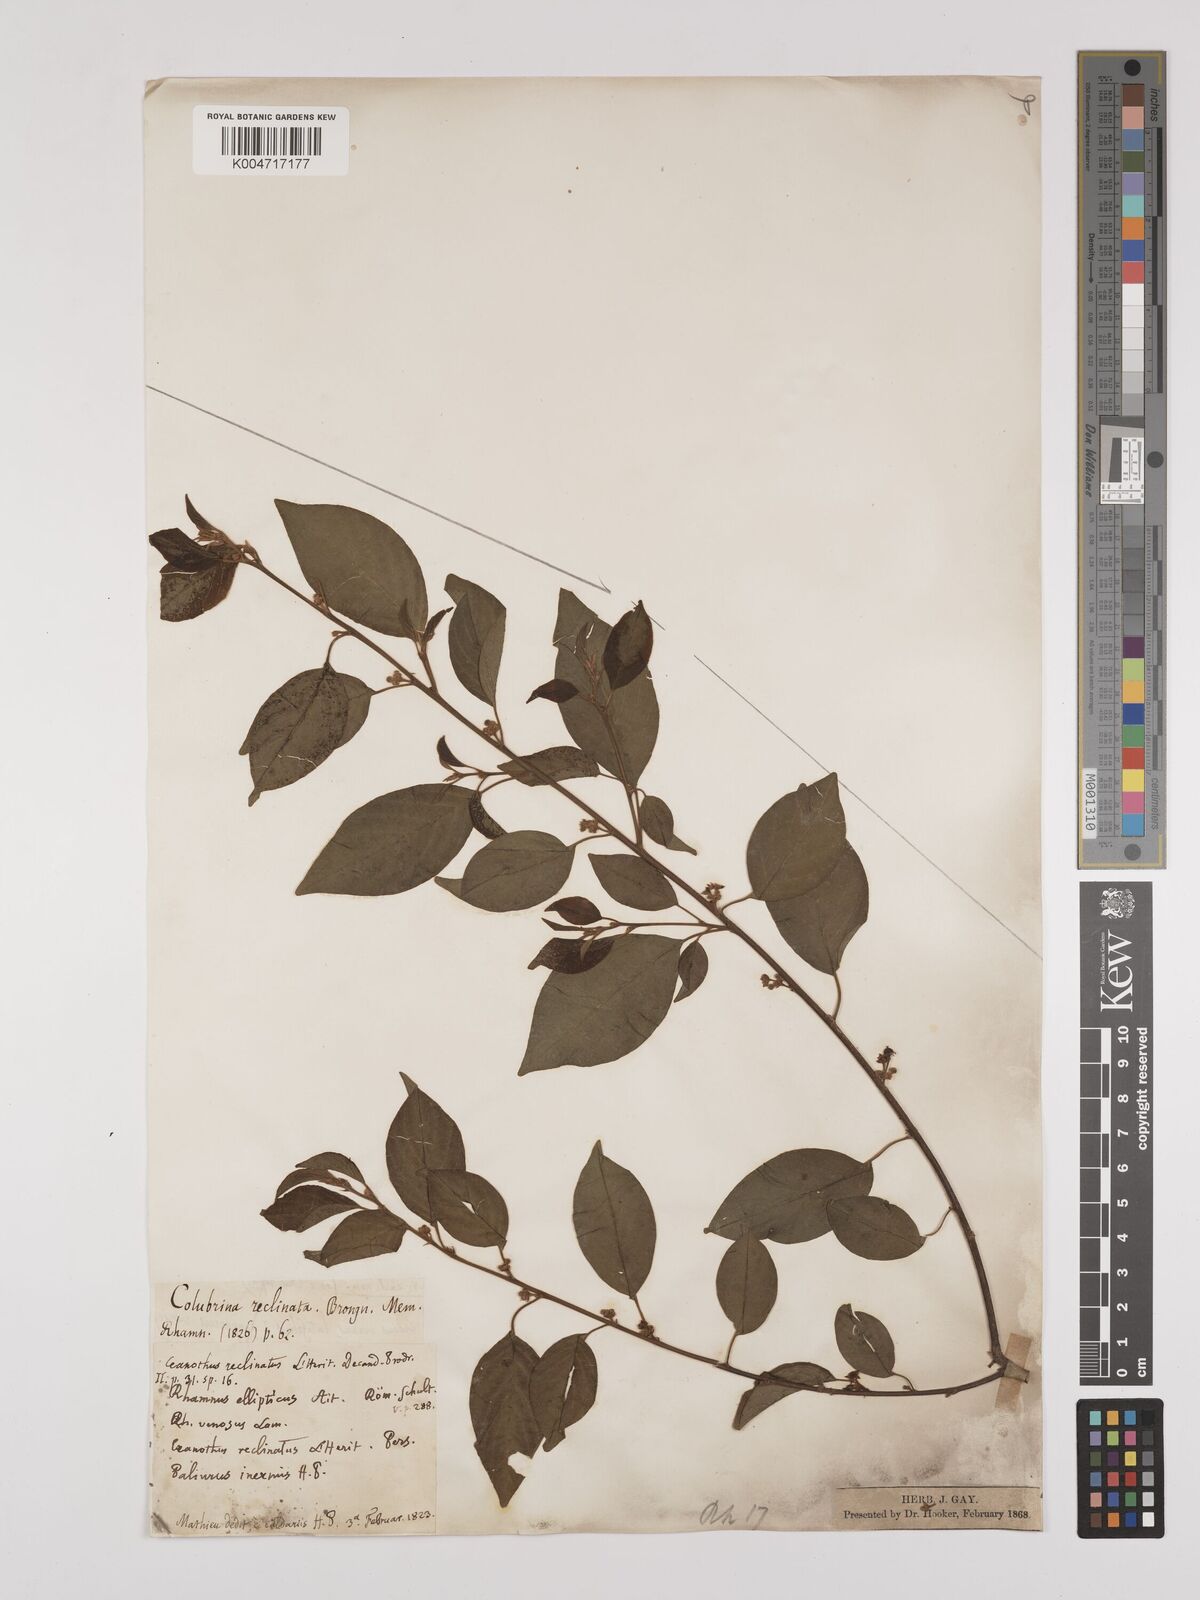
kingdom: Plantae
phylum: Tracheophyta
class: Magnoliopsida
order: Rosales
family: Rhamnaceae
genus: Colubrina
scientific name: Colubrina elliptica
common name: Soldierwood
